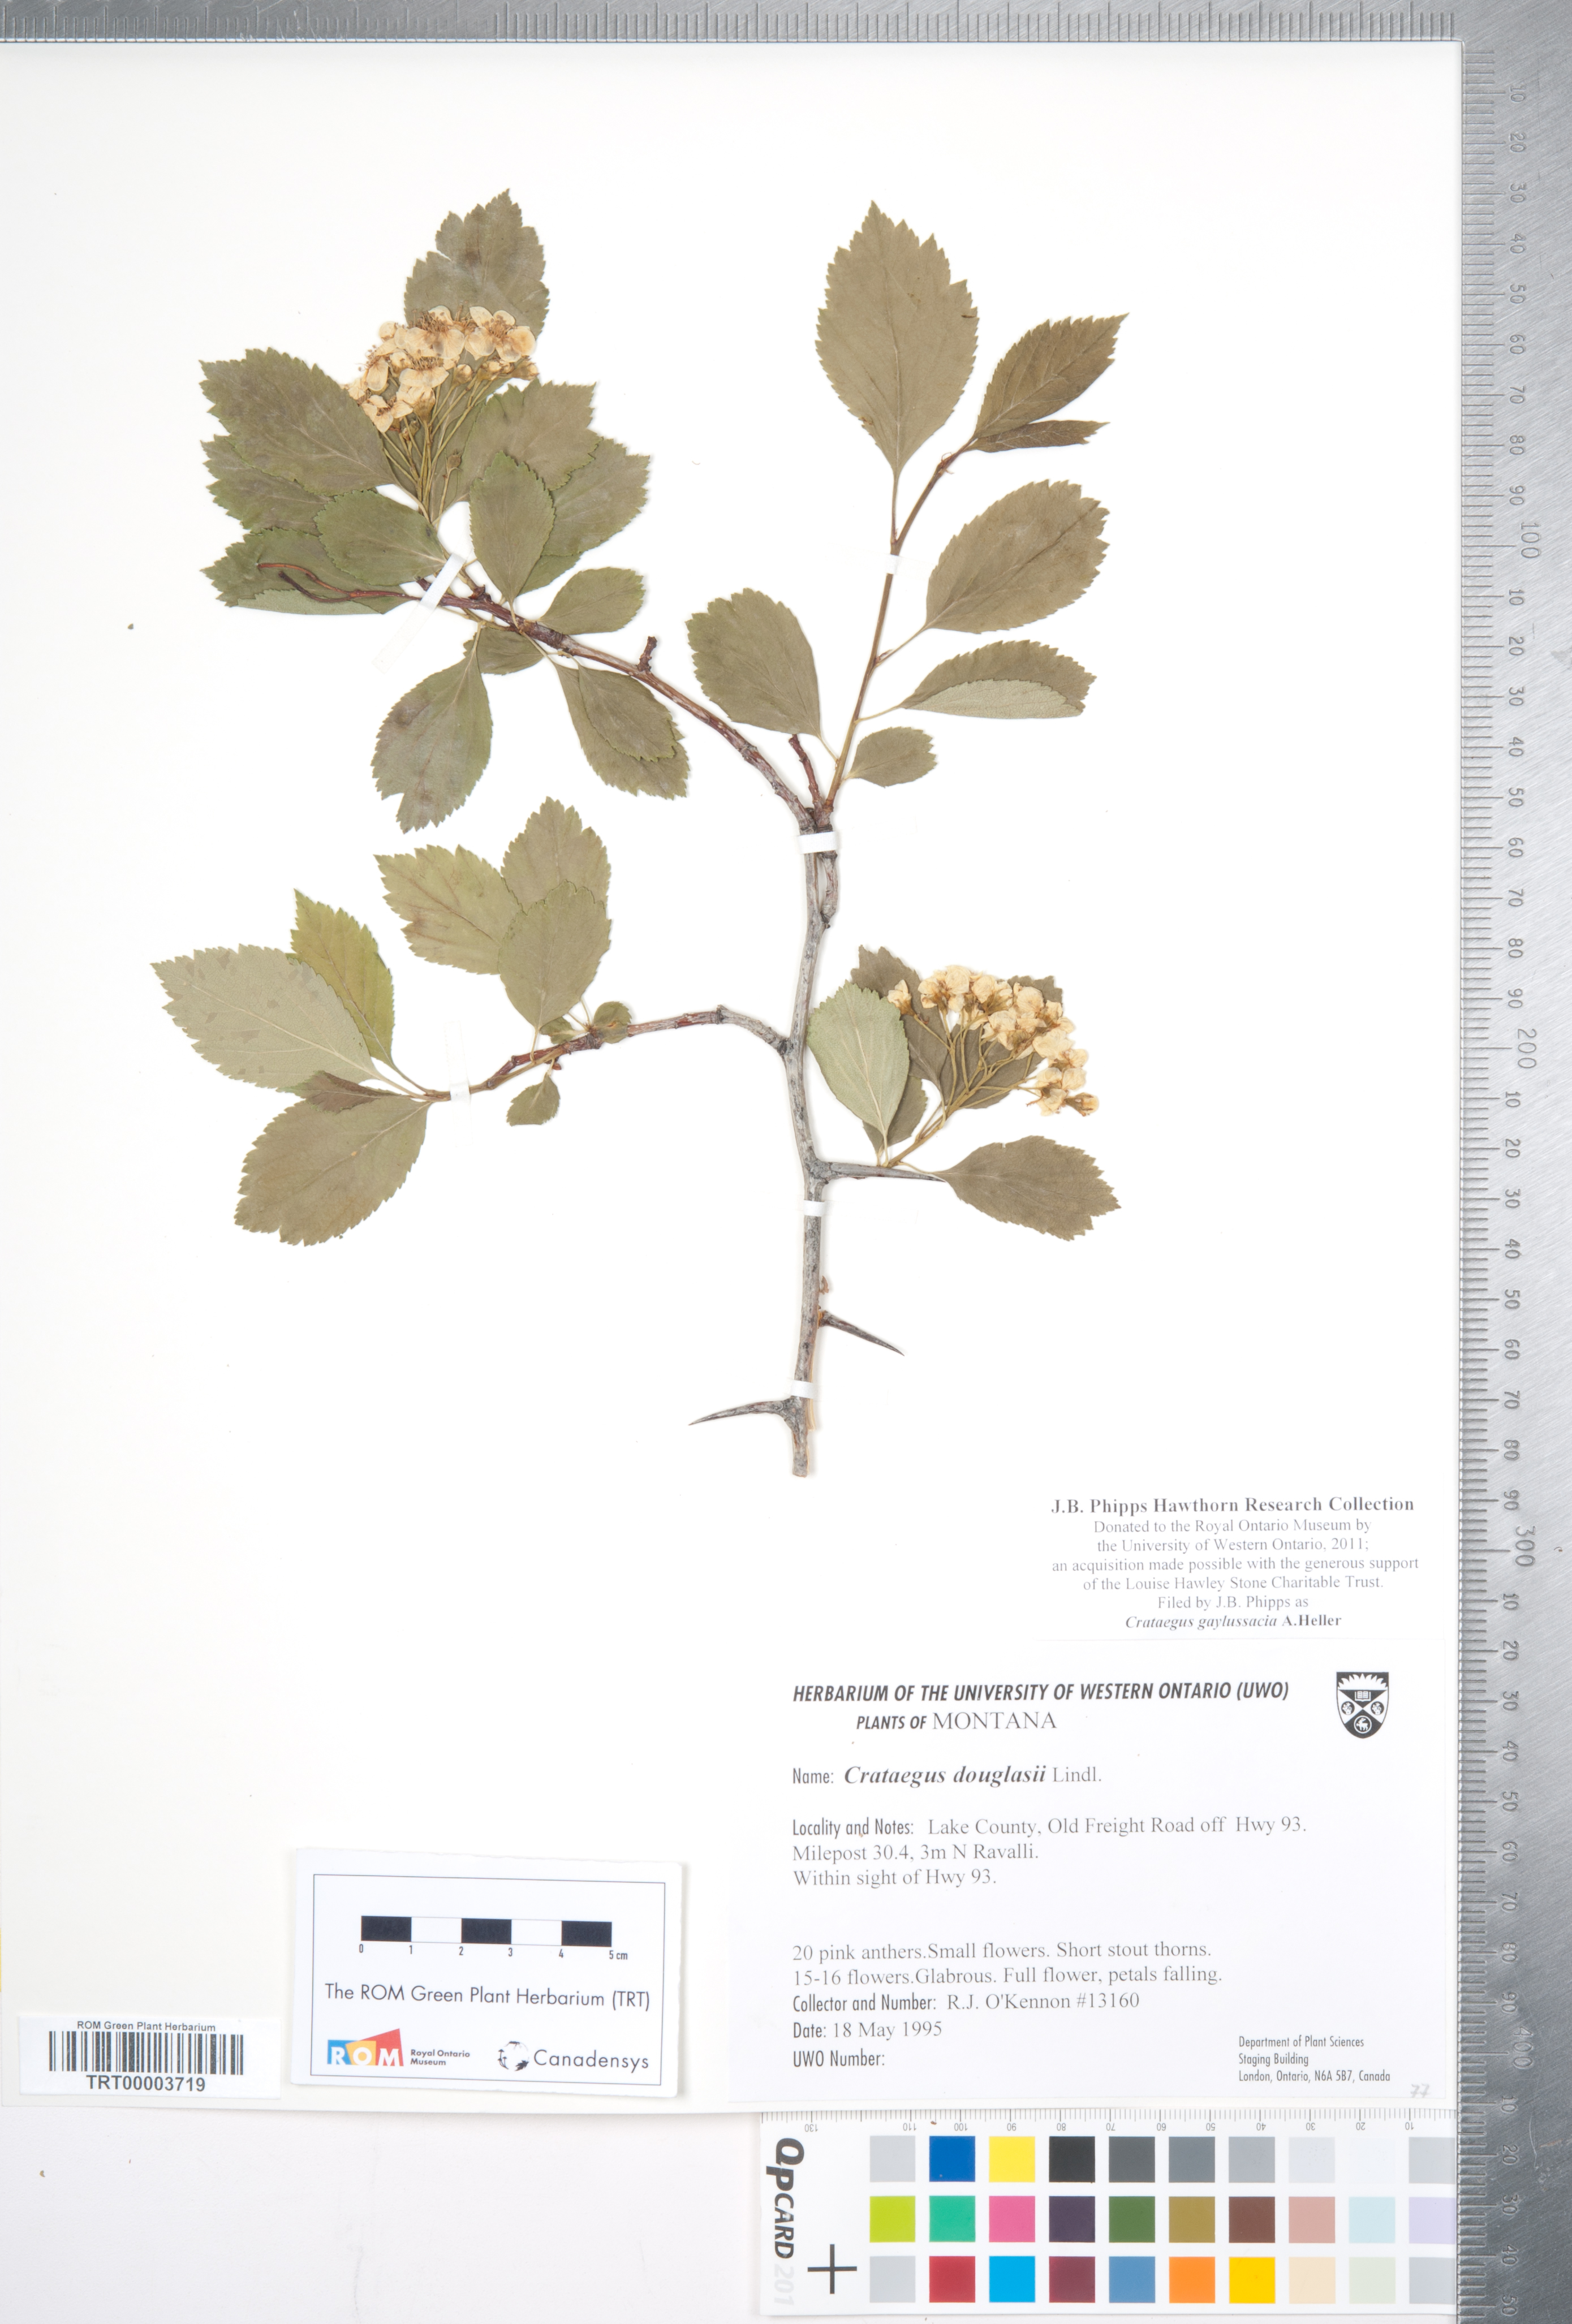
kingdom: Plantae
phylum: Tracheophyta
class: Magnoliopsida
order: Rosales
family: Rosaceae
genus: Crataegus
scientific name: Crataegus gaylussacia
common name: Huckleberry hawthorn
